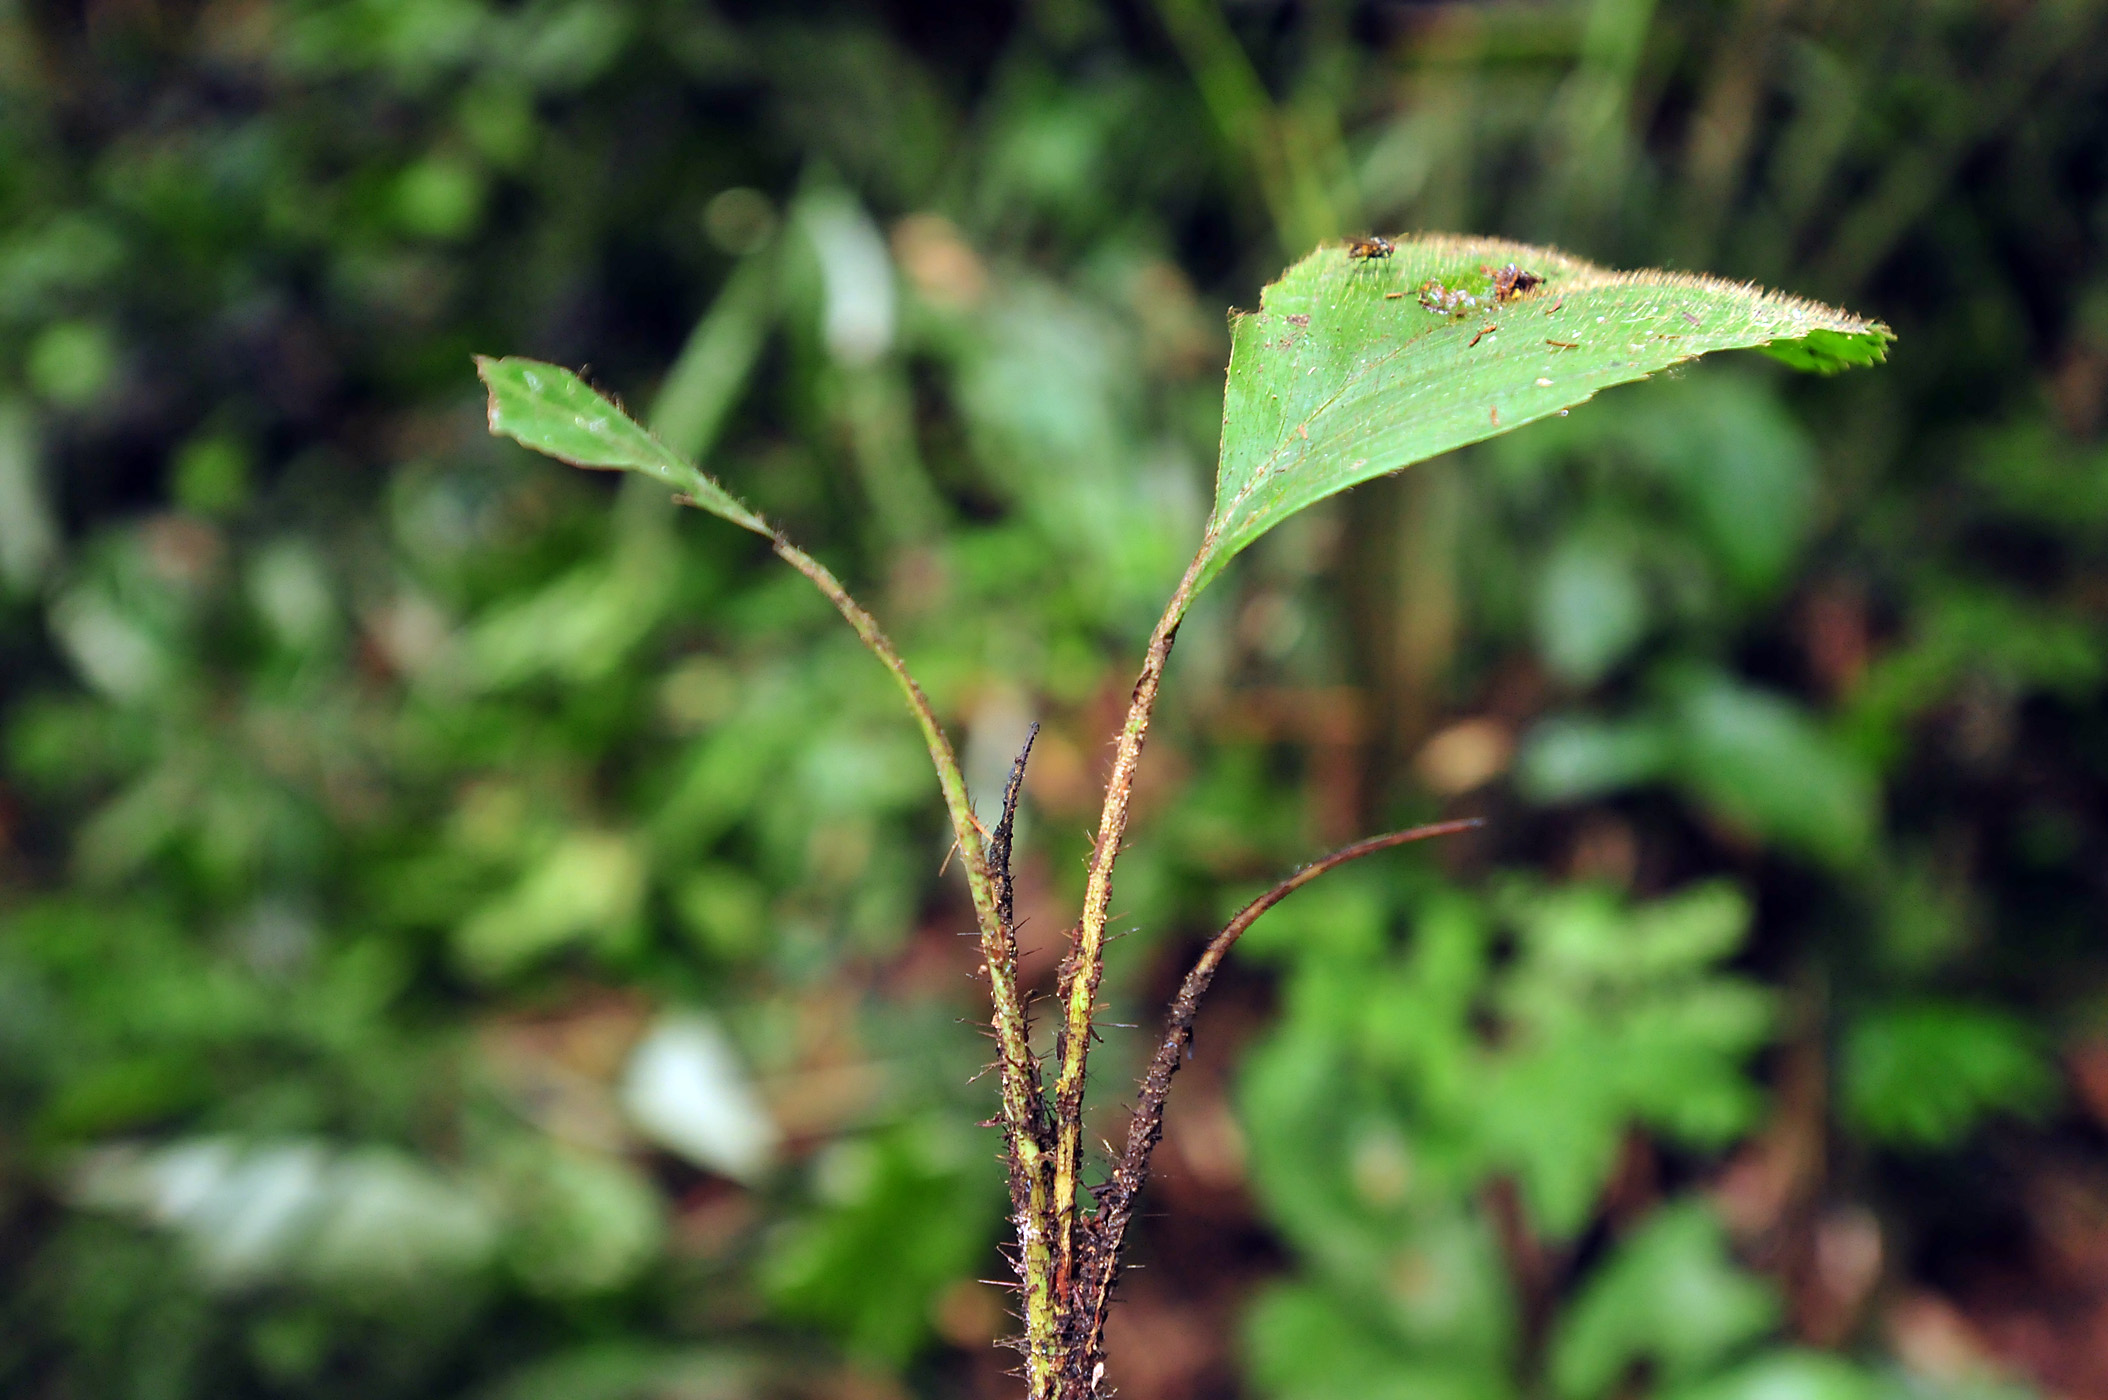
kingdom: Plantae
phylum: Tracheophyta
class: Liliopsida
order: Arecales
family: Arecaceae
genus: Aiphanes
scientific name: Aiphanes horrida
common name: Ruffle palm
